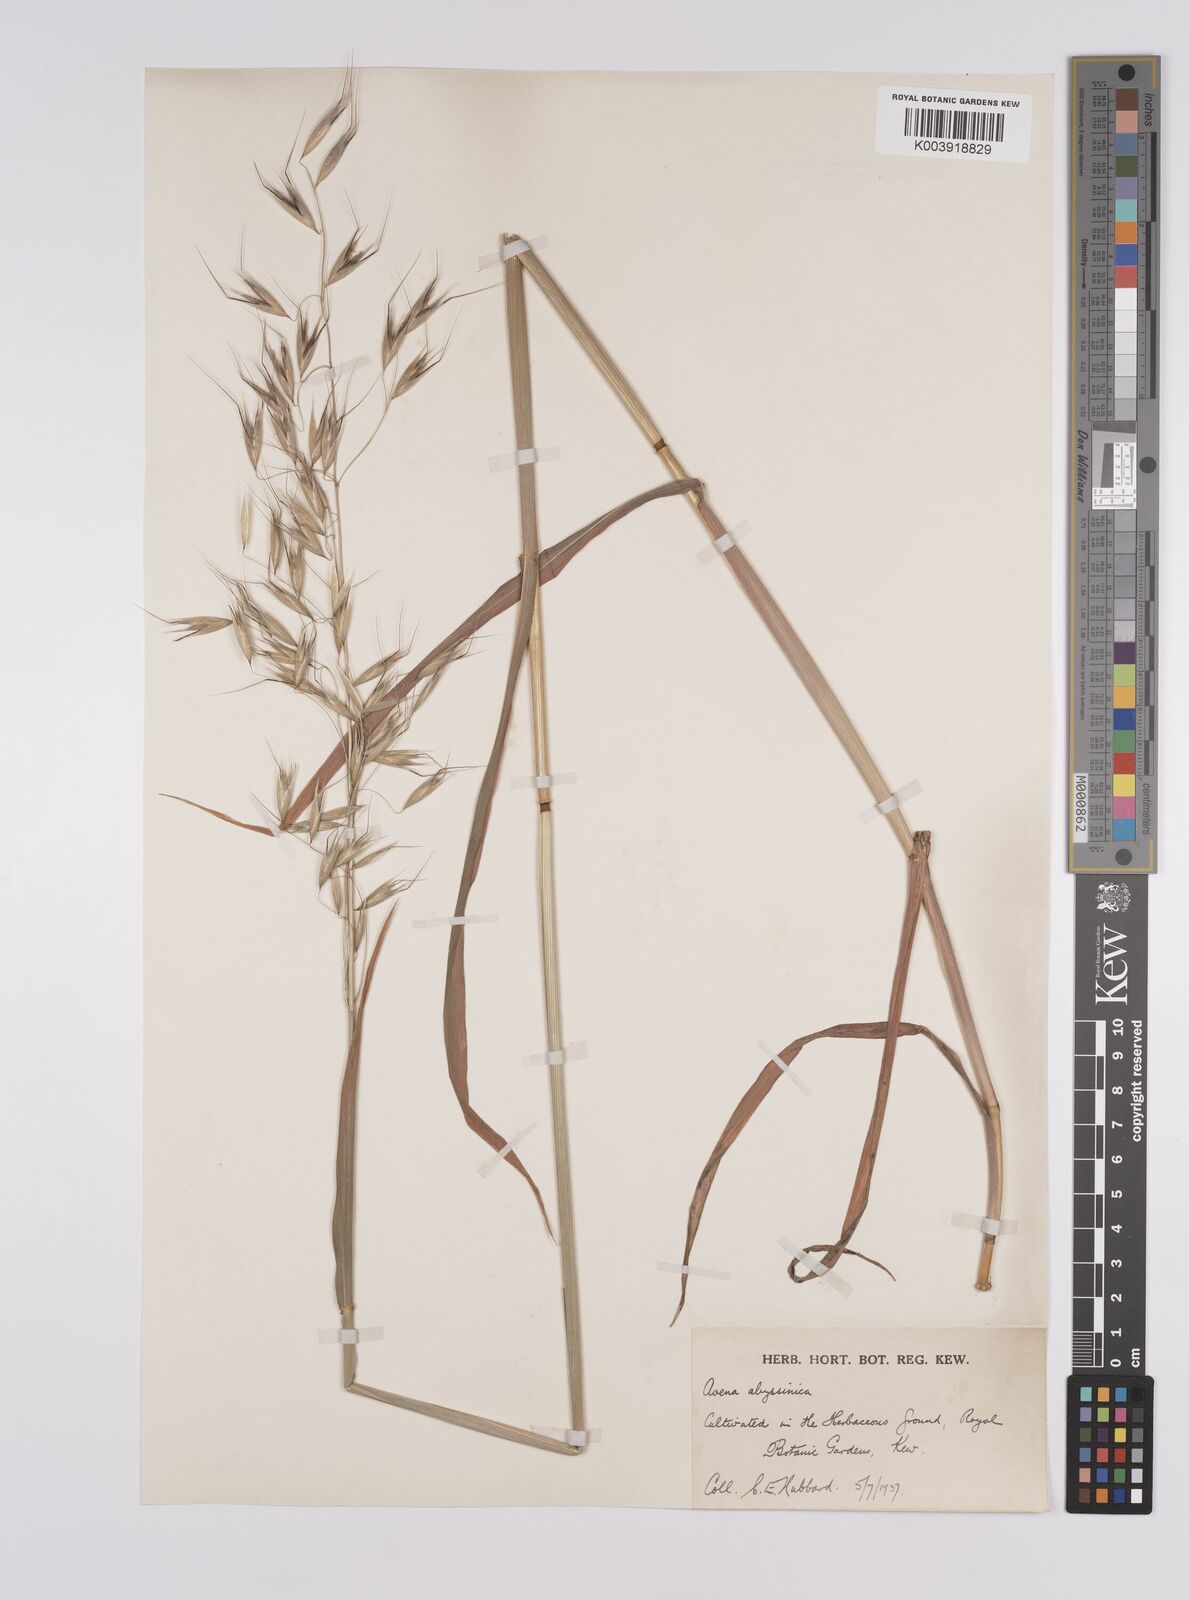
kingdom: Plantae
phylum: Tracheophyta
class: Liliopsida
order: Poales
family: Poaceae
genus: Avena
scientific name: Avena abyssinica
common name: Ethiopian oat
